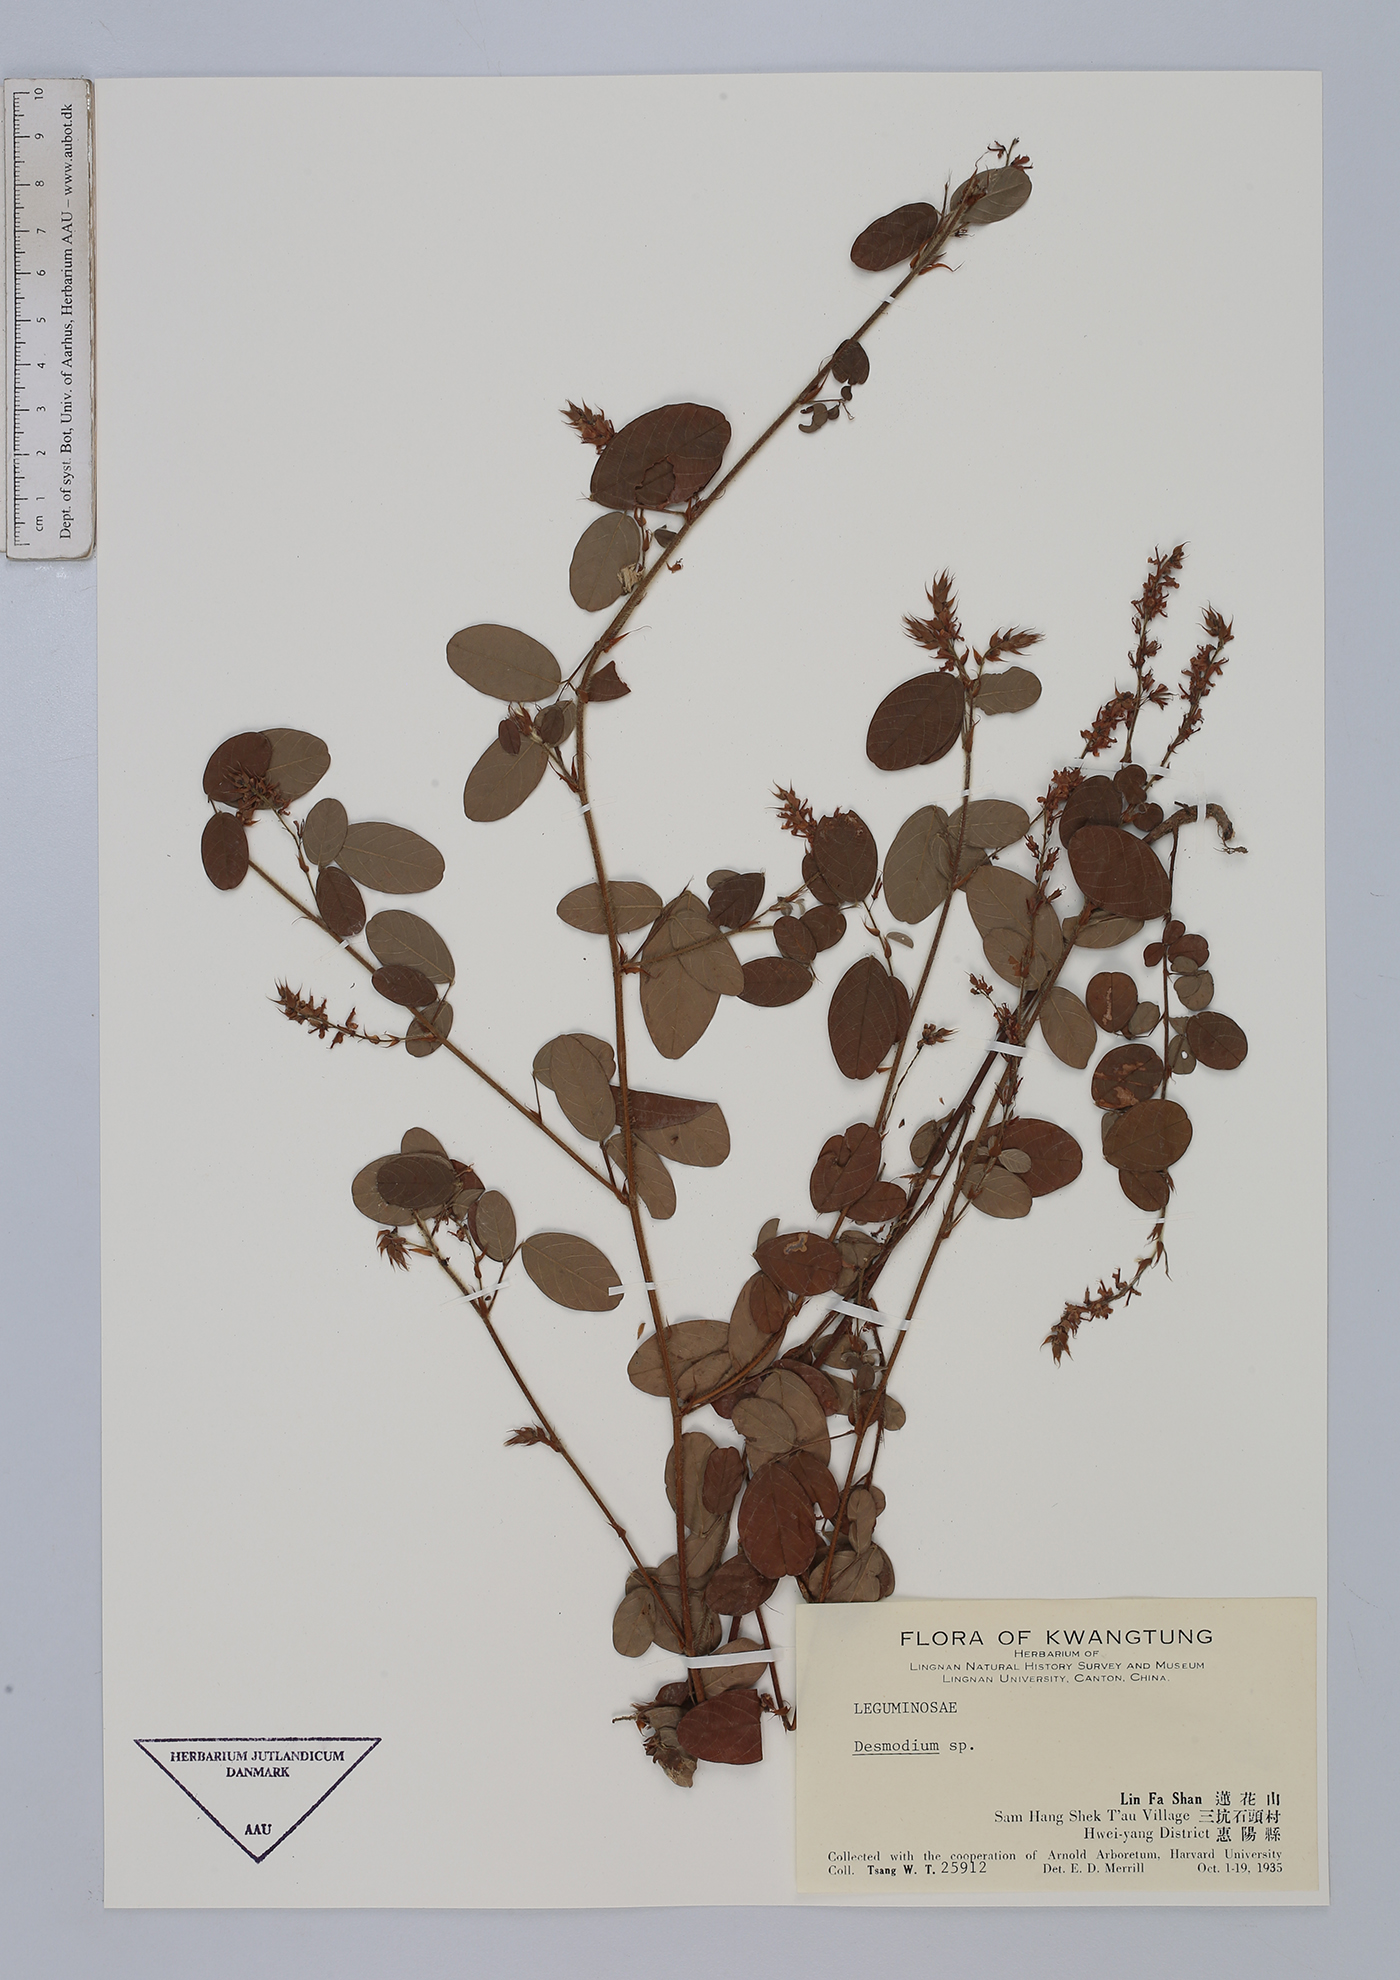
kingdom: Plantae
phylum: Tracheophyta
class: Magnoliopsida
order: Fabales
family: Fabaceae
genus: Desmodium
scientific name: Desmodium
